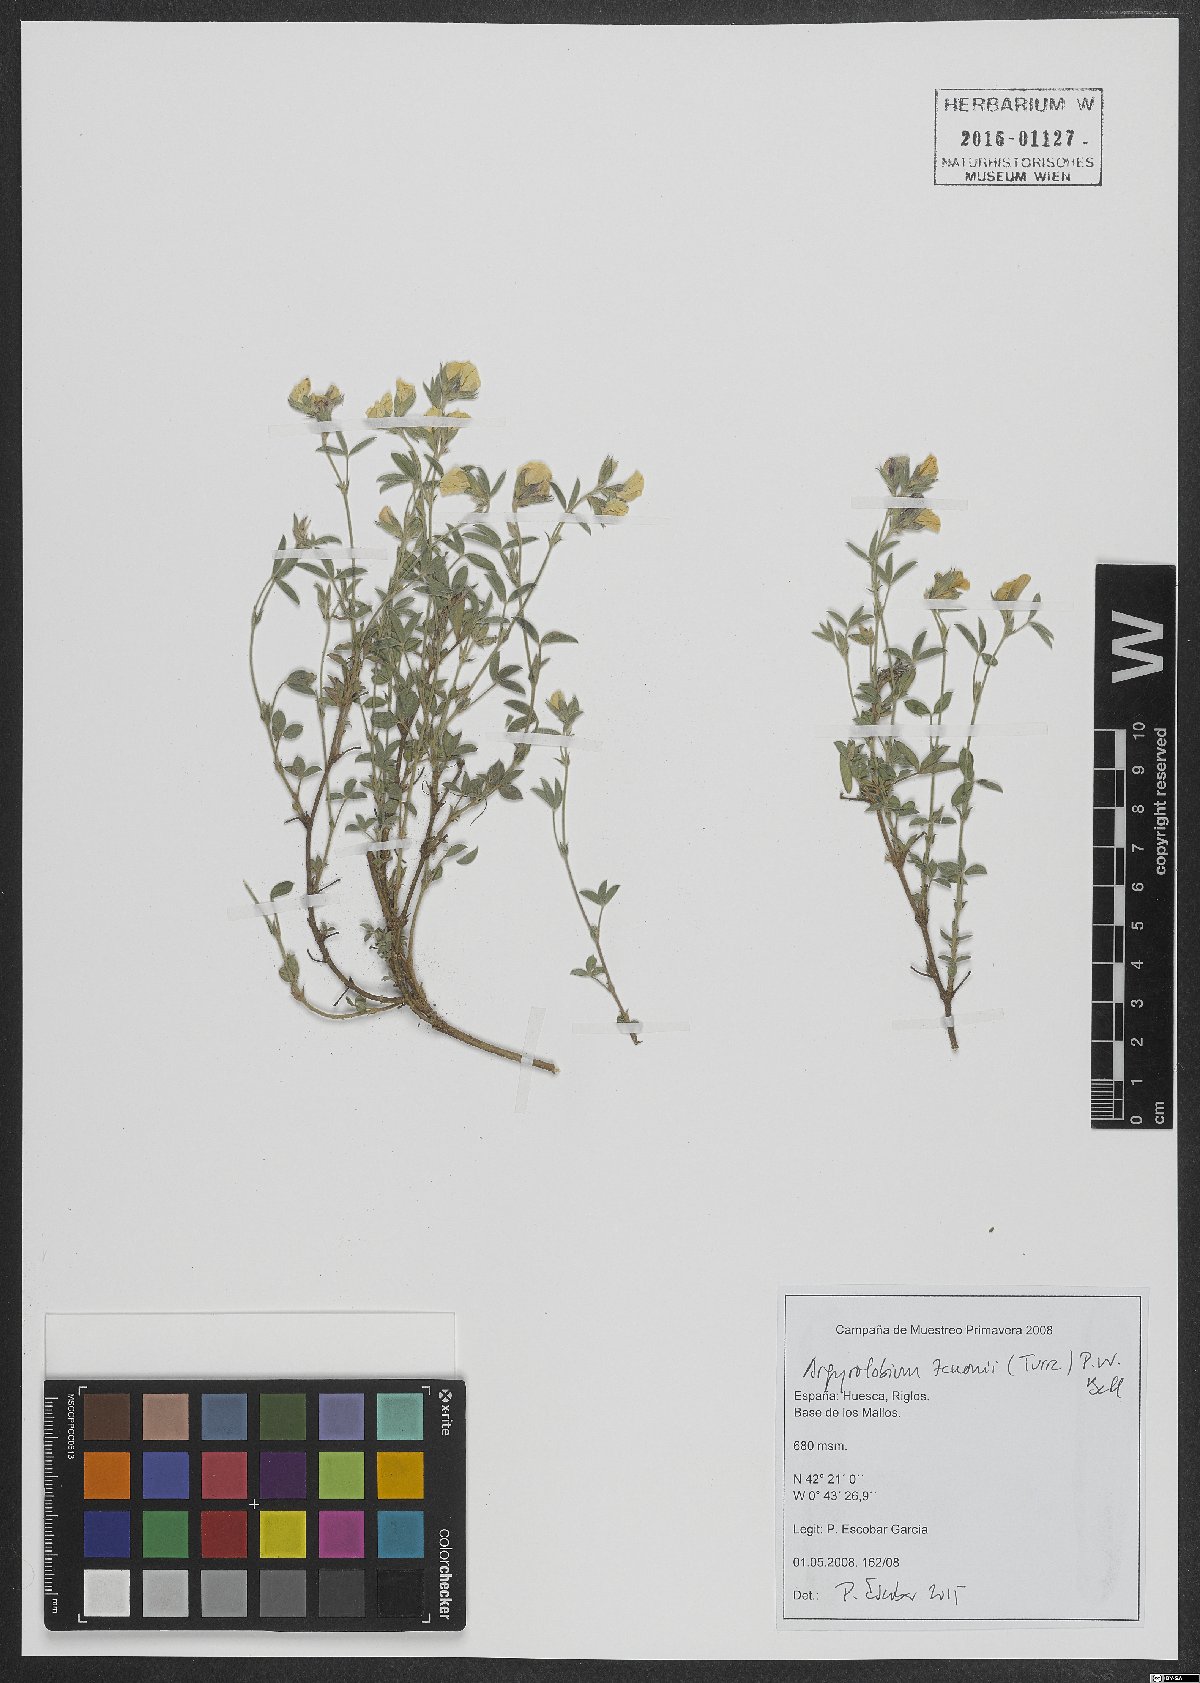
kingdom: Plantae
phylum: Tracheophyta
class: Magnoliopsida
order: Fabales
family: Fabaceae
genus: Argyrolobium
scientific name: Argyrolobium zanonii
